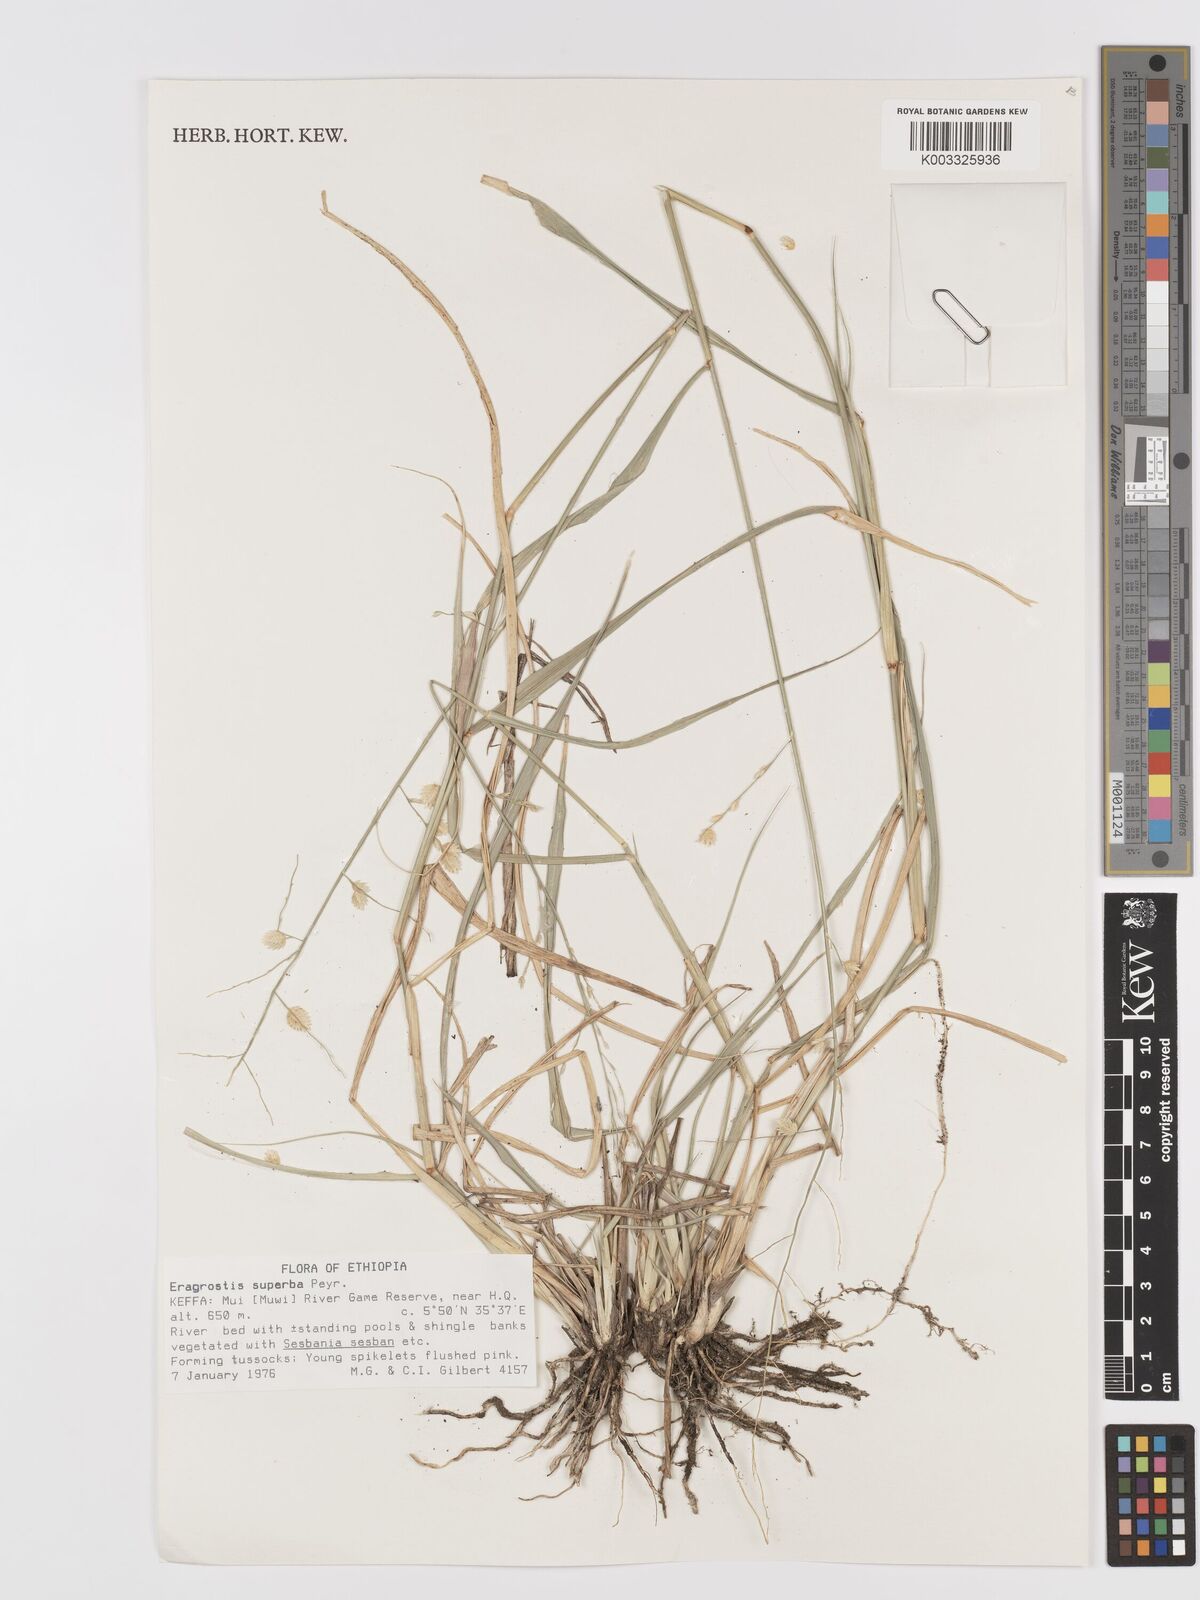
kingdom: Plantae
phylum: Tracheophyta
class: Liliopsida
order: Poales
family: Poaceae
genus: Eragrostis
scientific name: Eragrostis superba
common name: Wilman lovegrass
